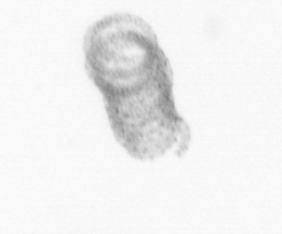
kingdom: Chromista
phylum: Ochrophyta
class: Bacillariophyceae
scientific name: Bacillariophyceae
